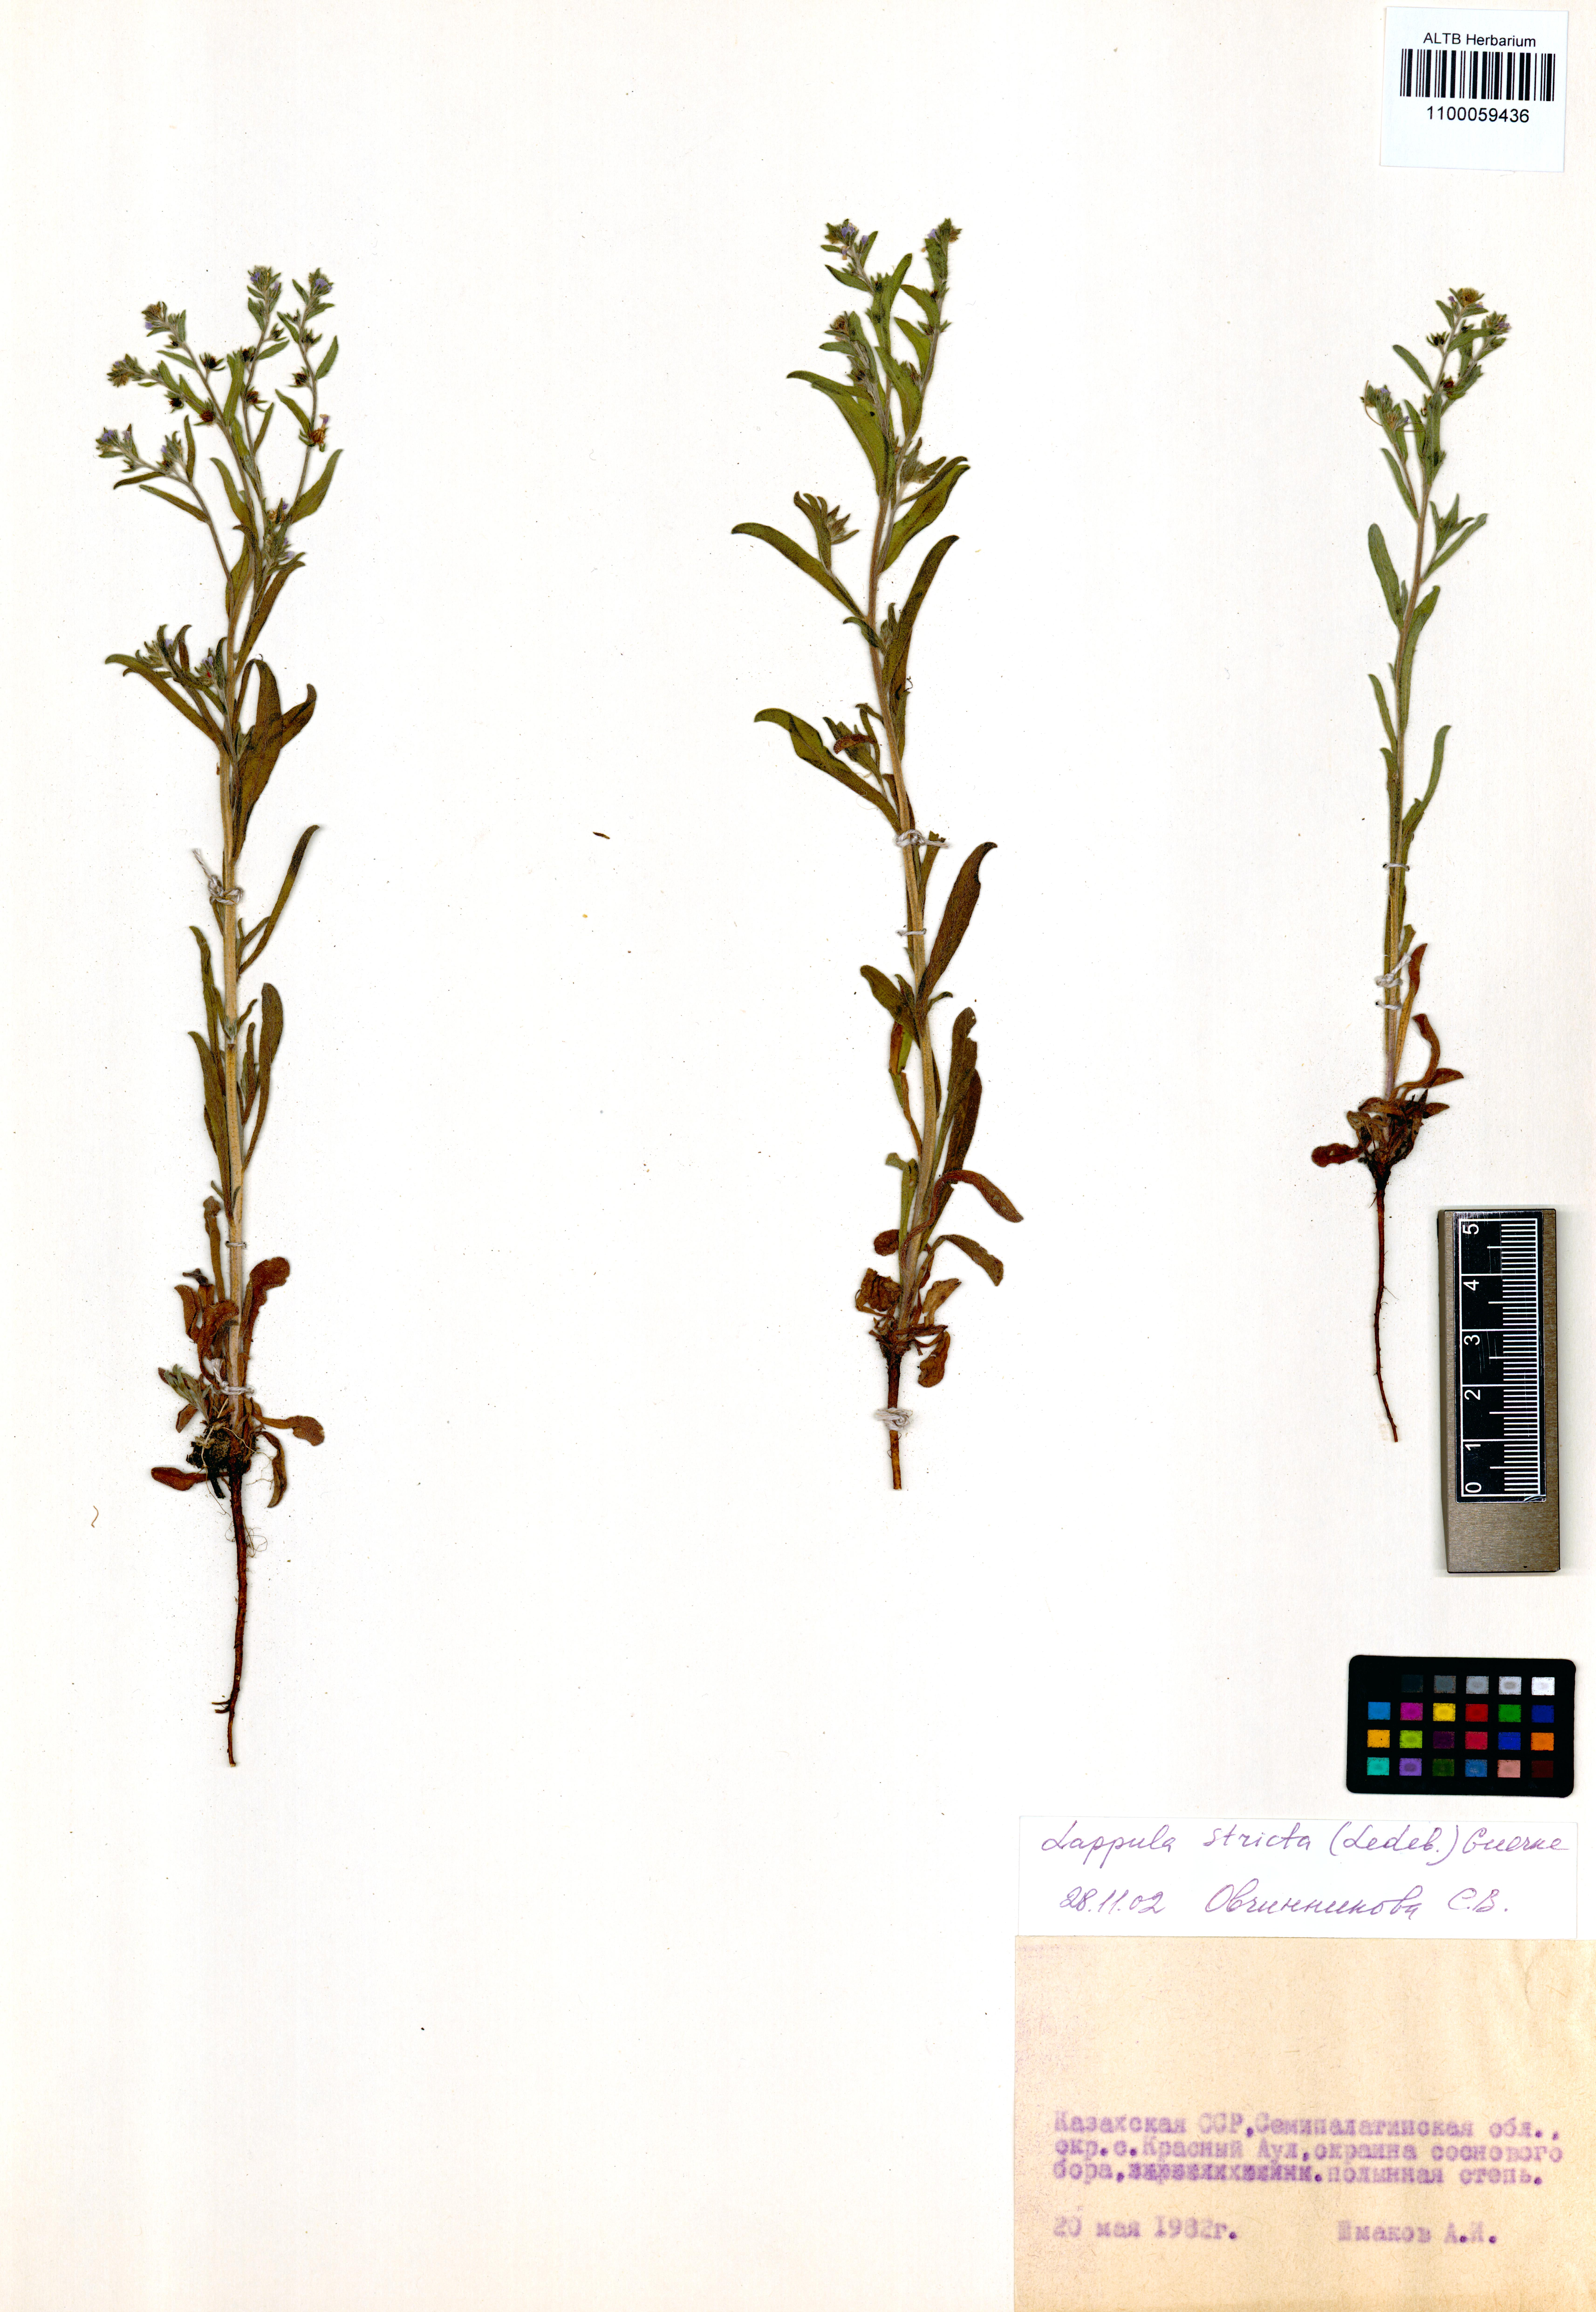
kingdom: Plantae
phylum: Tracheophyta
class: Magnoliopsida
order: Boraginales
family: Boraginaceae
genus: Lappula
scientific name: Lappula stricta
